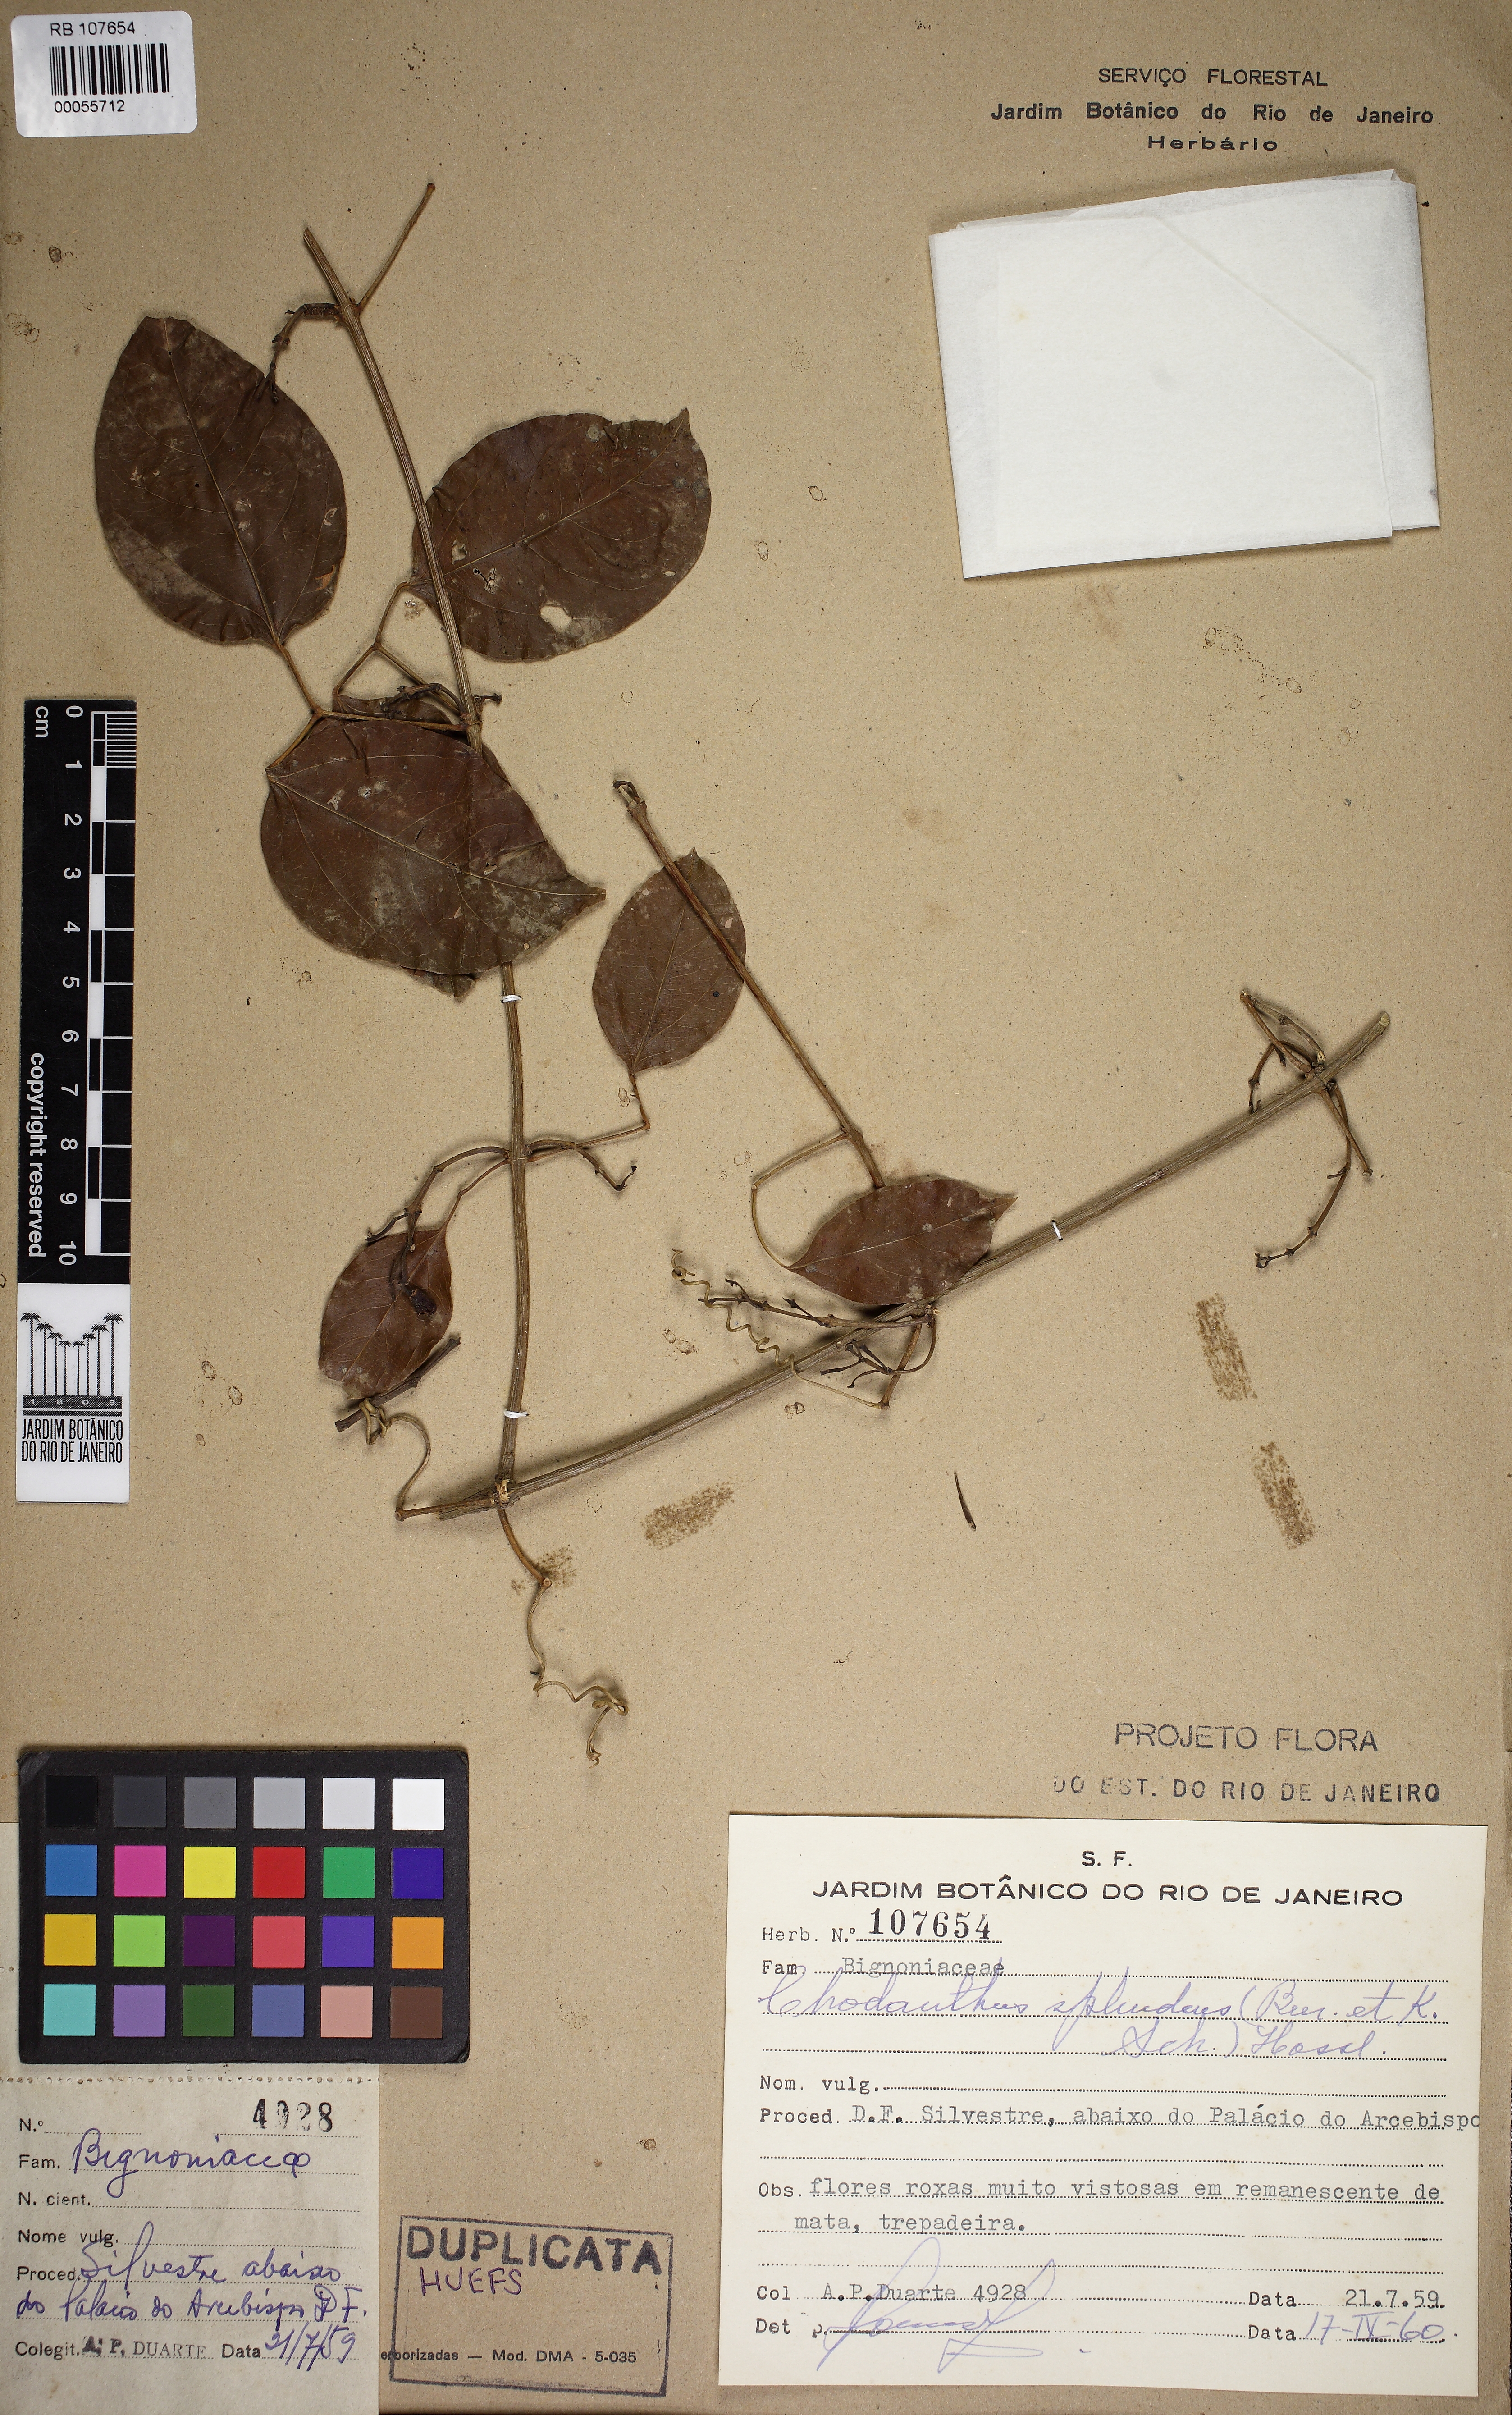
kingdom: Plantae
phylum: Tracheophyta
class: Magnoliopsida
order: Lamiales
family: Bignoniaceae
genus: Mansoa
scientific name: Mansoa difficilis
